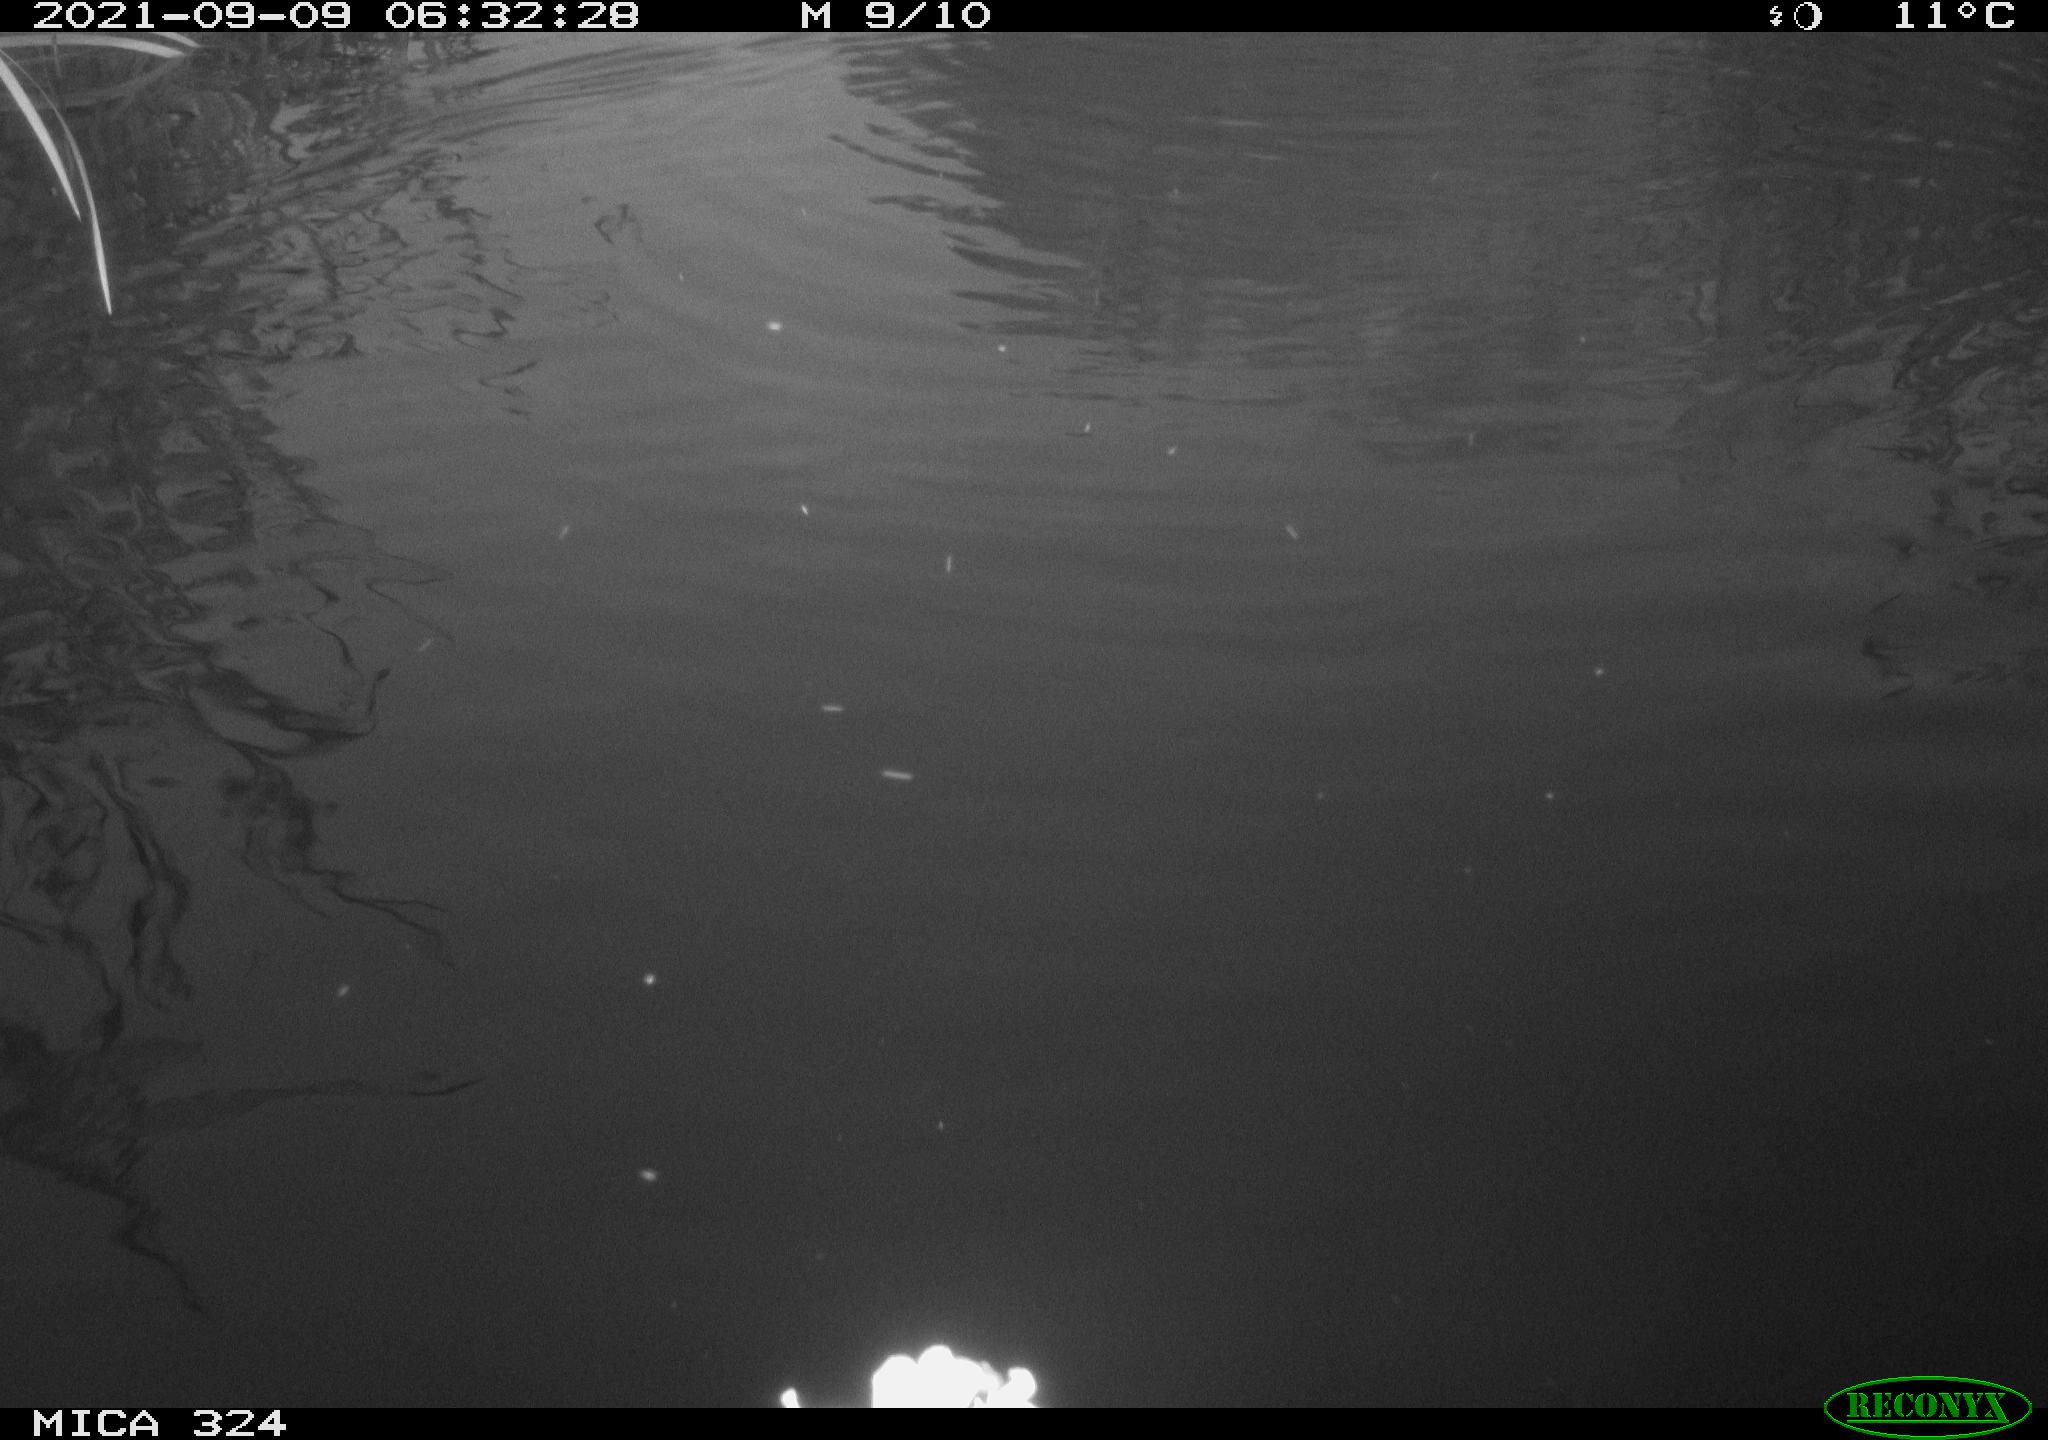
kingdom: Animalia
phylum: Chordata
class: Mammalia
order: Rodentia
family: Cricetidae
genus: Ondatra
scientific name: Ondatra zibethicus
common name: Muskrat
